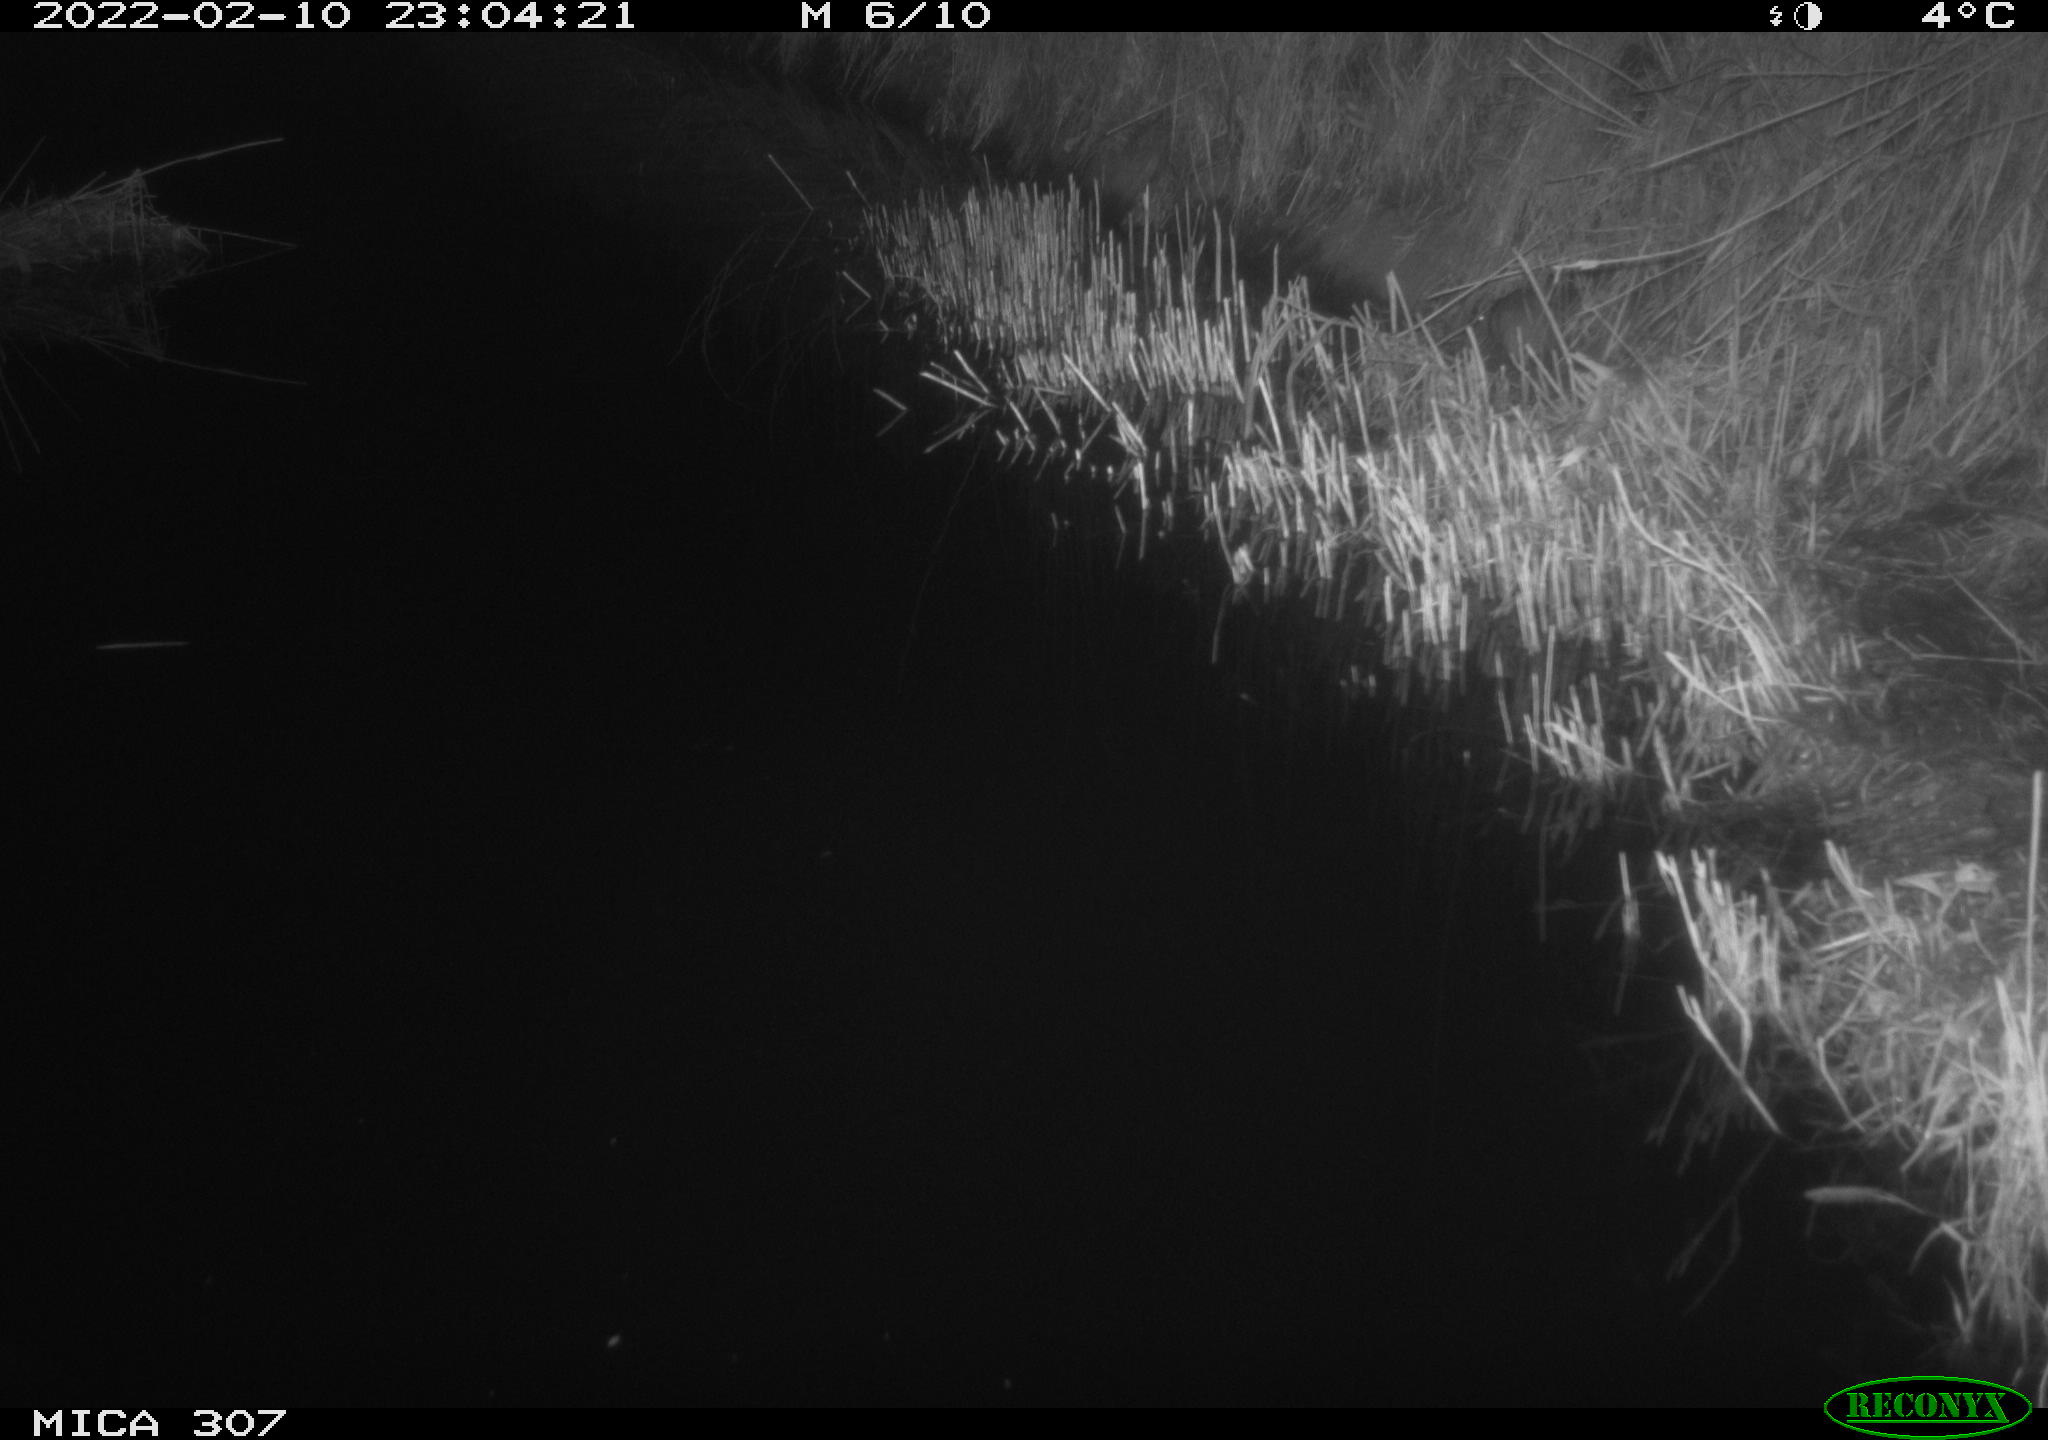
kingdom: Animalia
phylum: Chordata
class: Mammalia
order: Rodentia
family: Muridae
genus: Rattus
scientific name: Rattus norvegicus
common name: Brown rat
